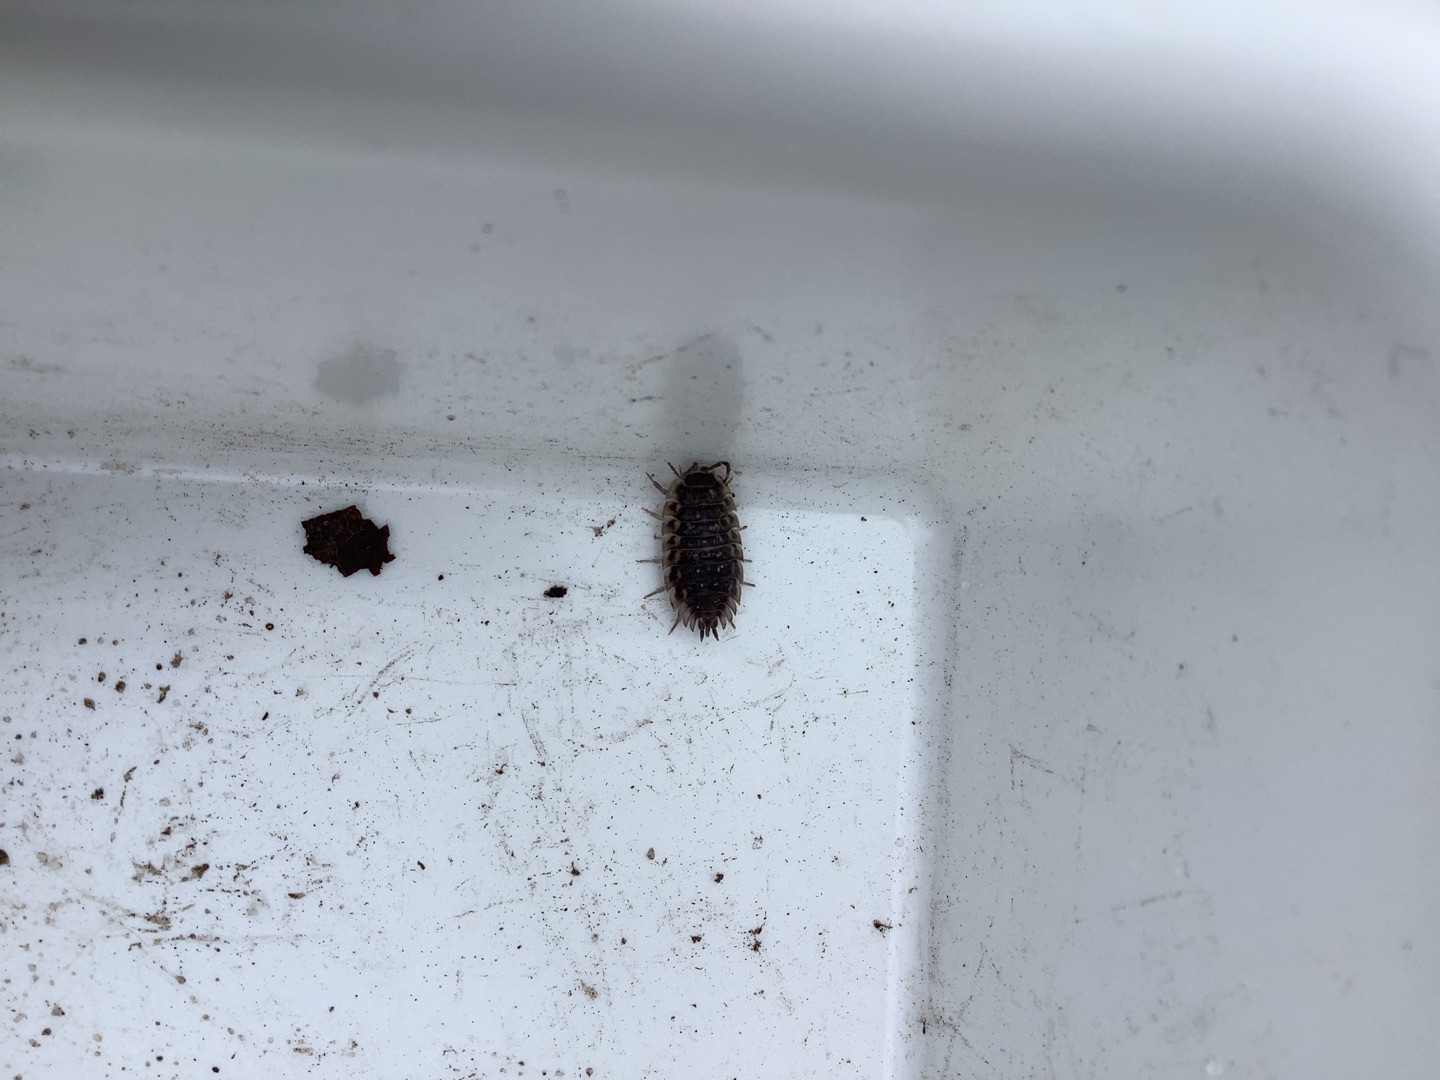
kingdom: Animalia
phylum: Arthropoda
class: Malacostraca
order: Isopoda
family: Oniscidae
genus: Oniscus
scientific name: Oniscus asellus
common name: Glat bænkebider
